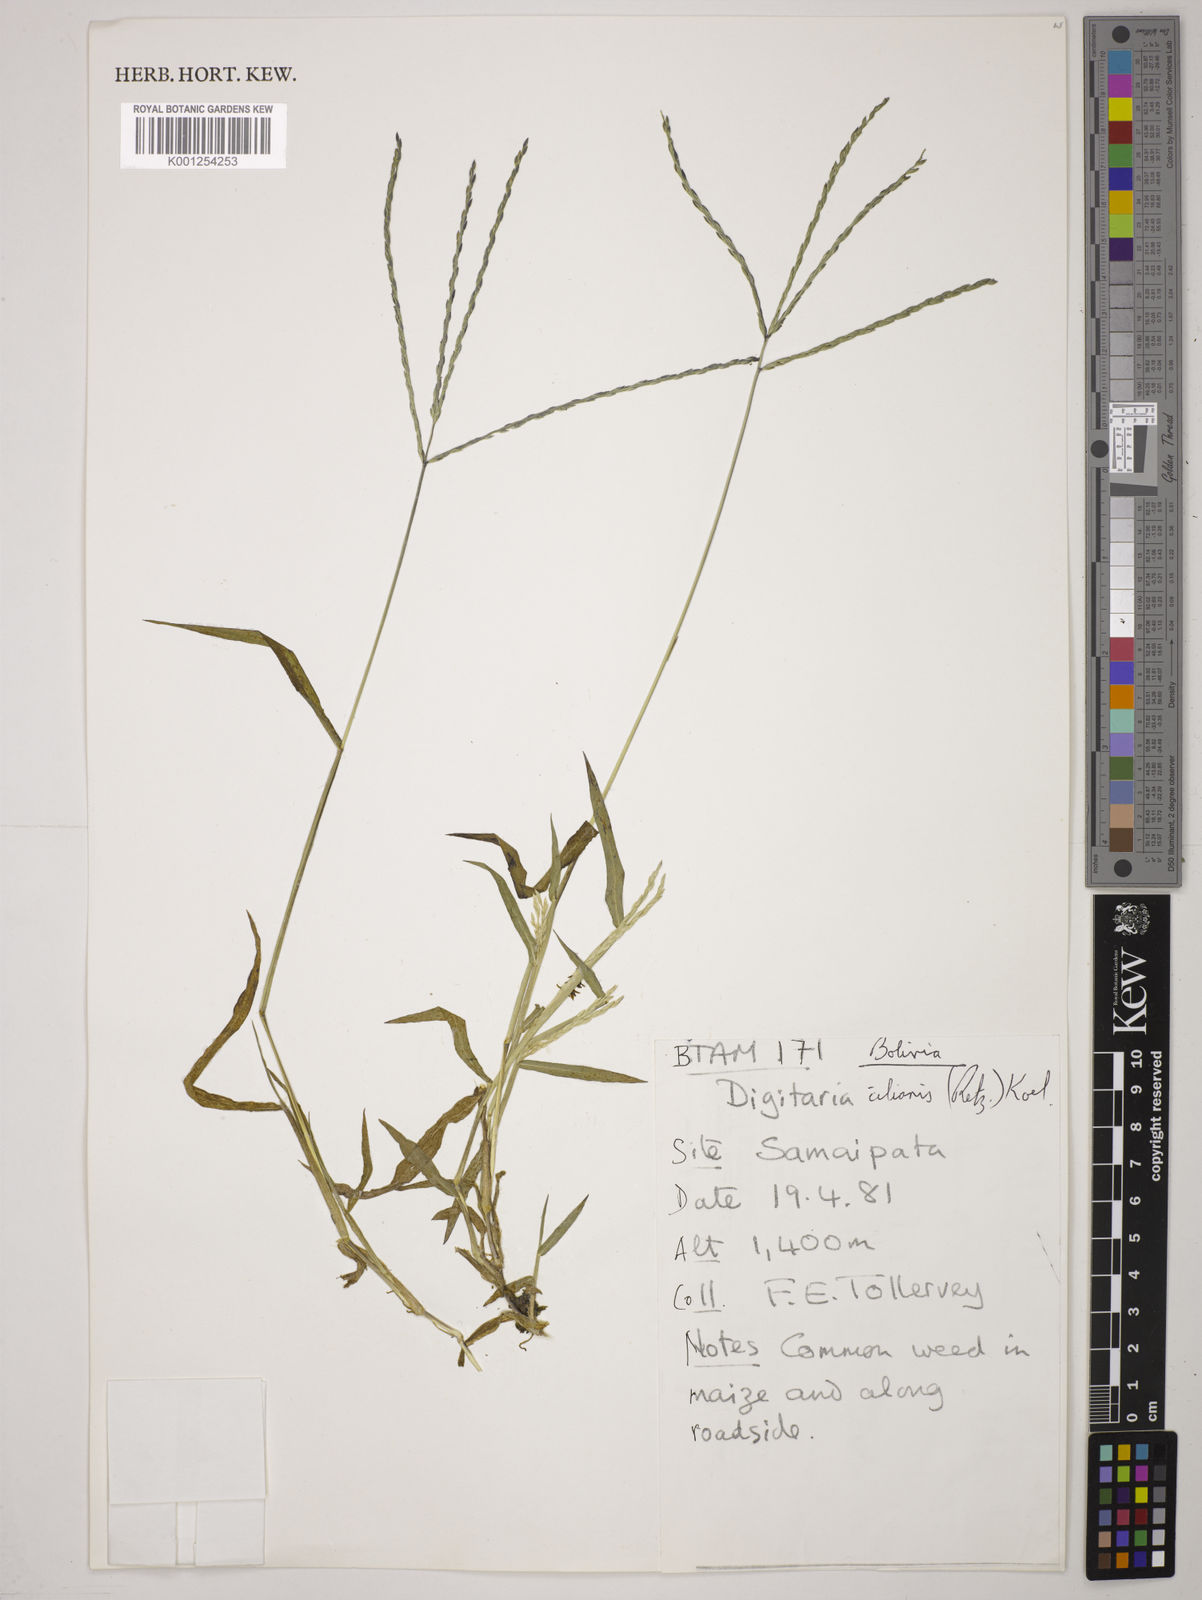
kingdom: Plantae
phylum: Tracheophyta
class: Liliopsida
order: Poales
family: Poaceae
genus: Digitaria
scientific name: Digitaria
